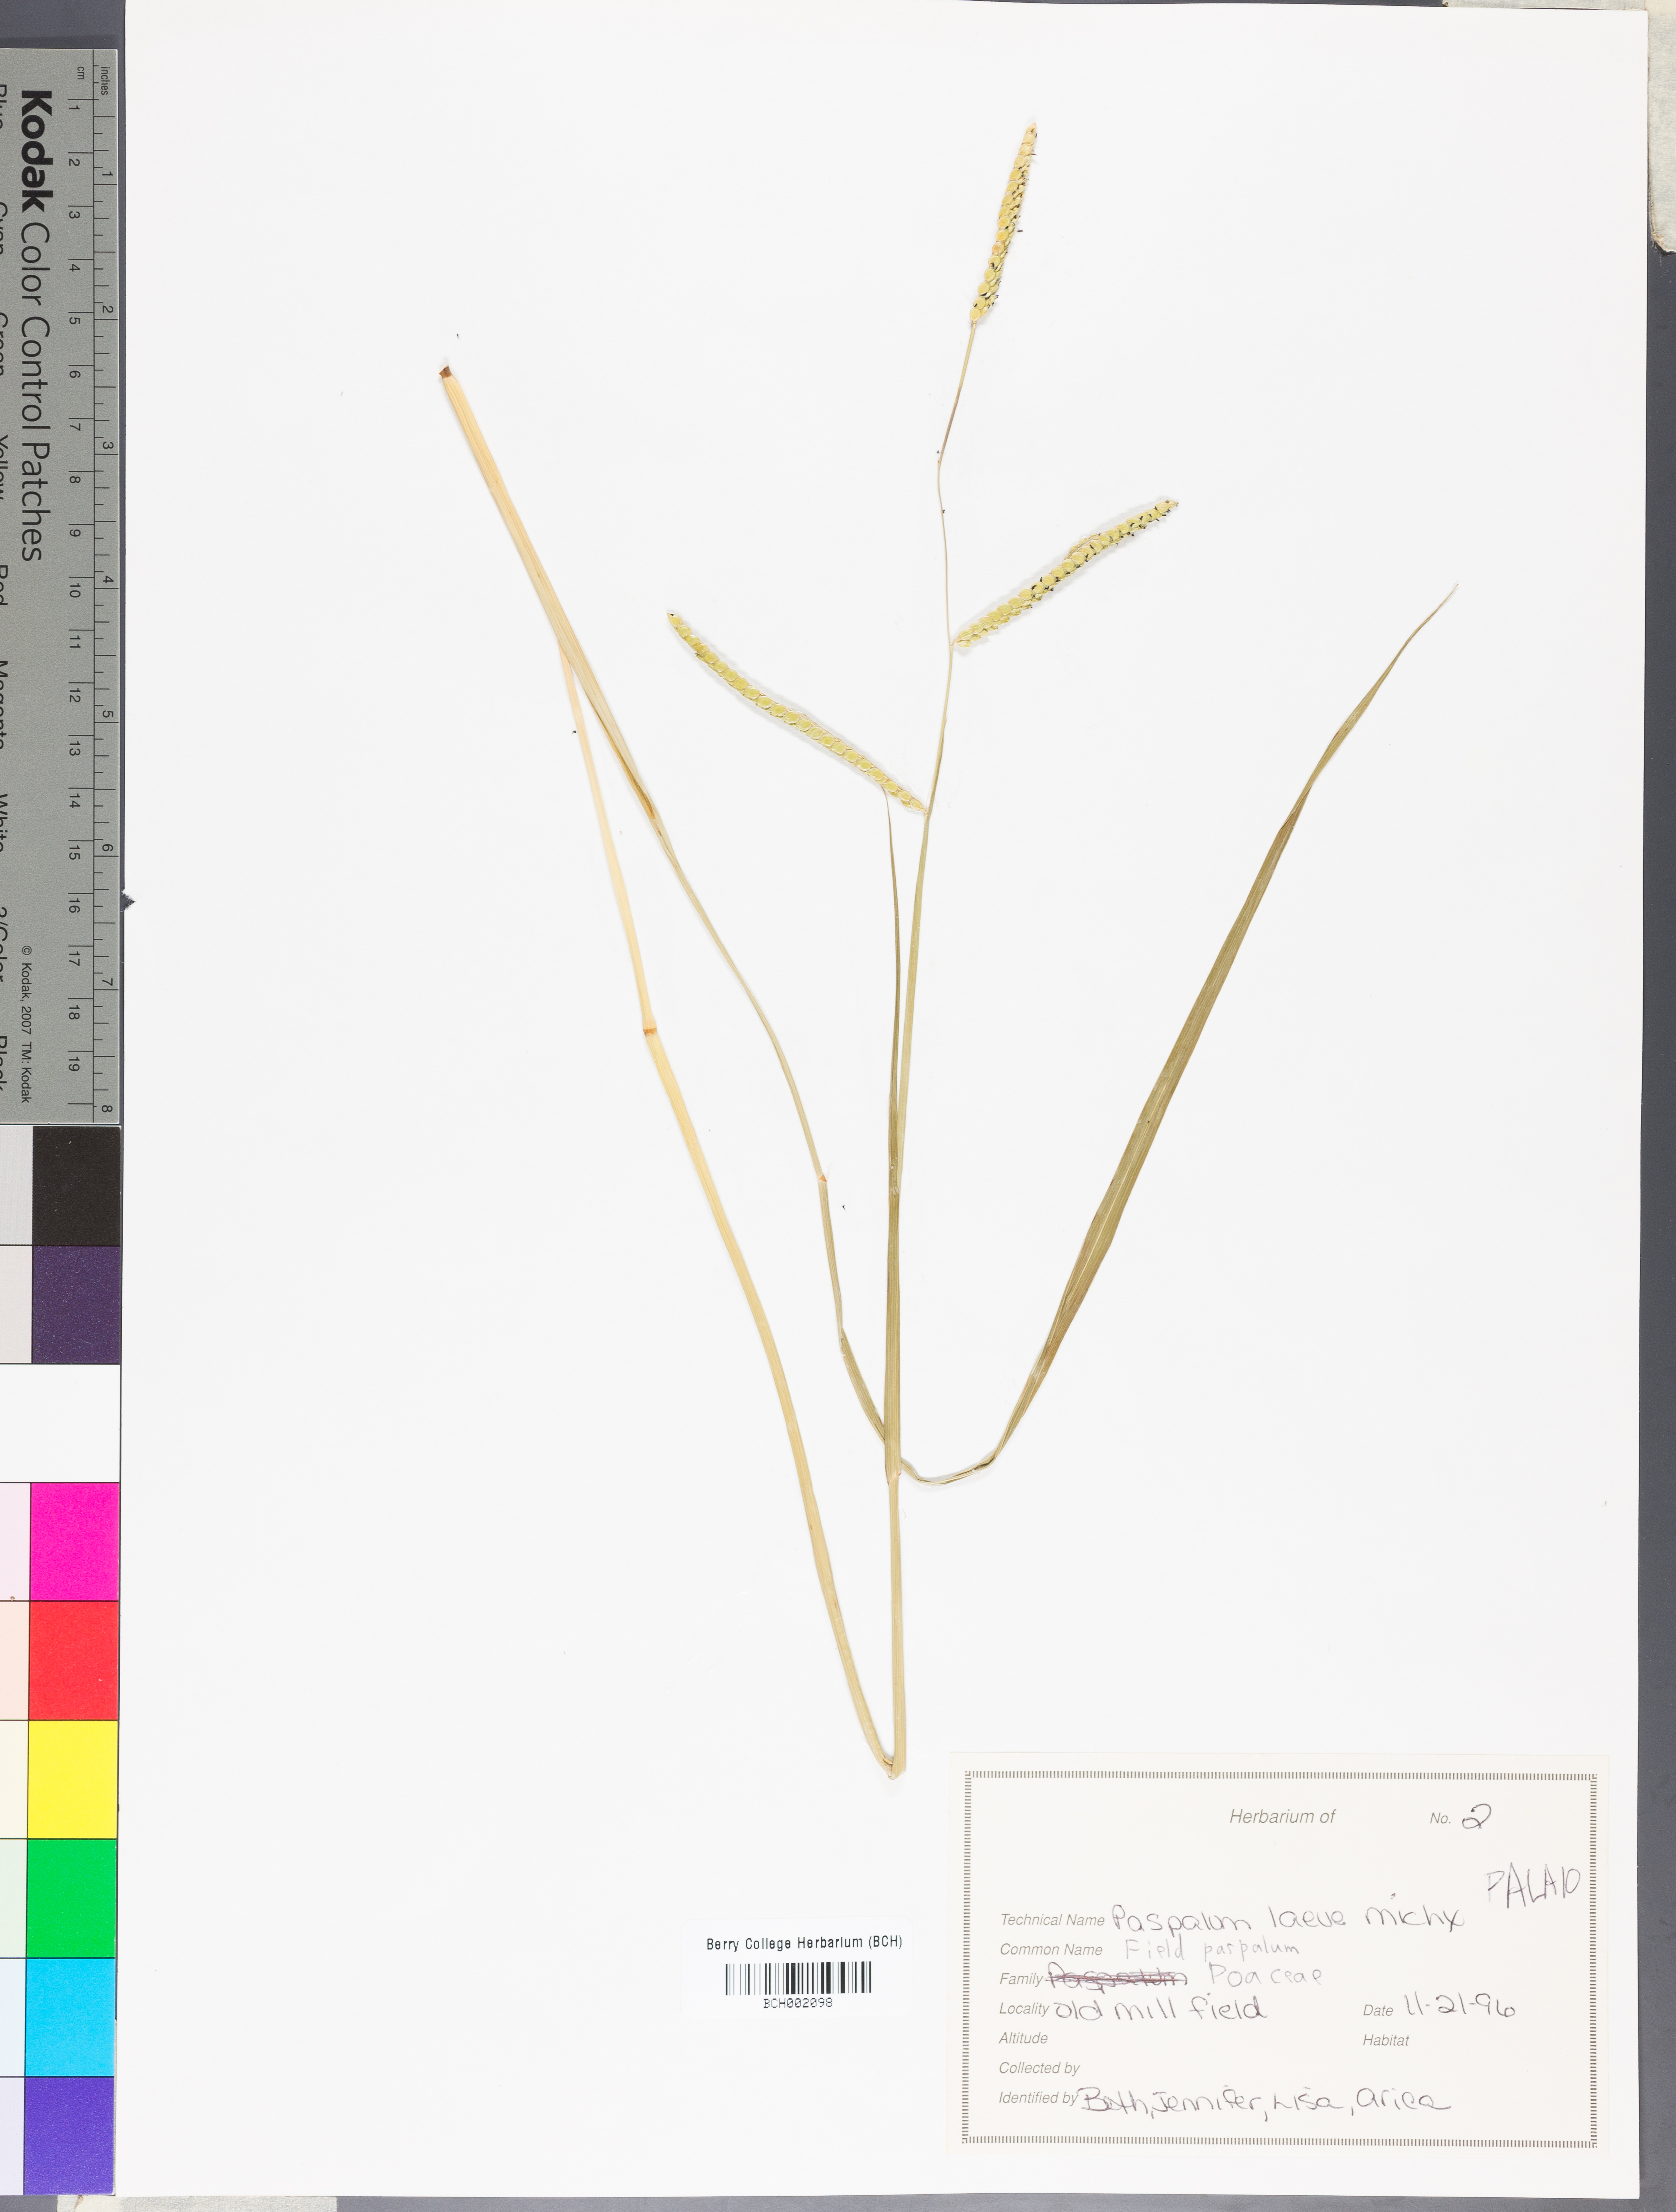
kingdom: Plantae
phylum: Tracheophyta
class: Liliopsida
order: Poales
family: Poaceae
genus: Paspalum
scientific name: Paspalum laeve
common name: Field paspalum
